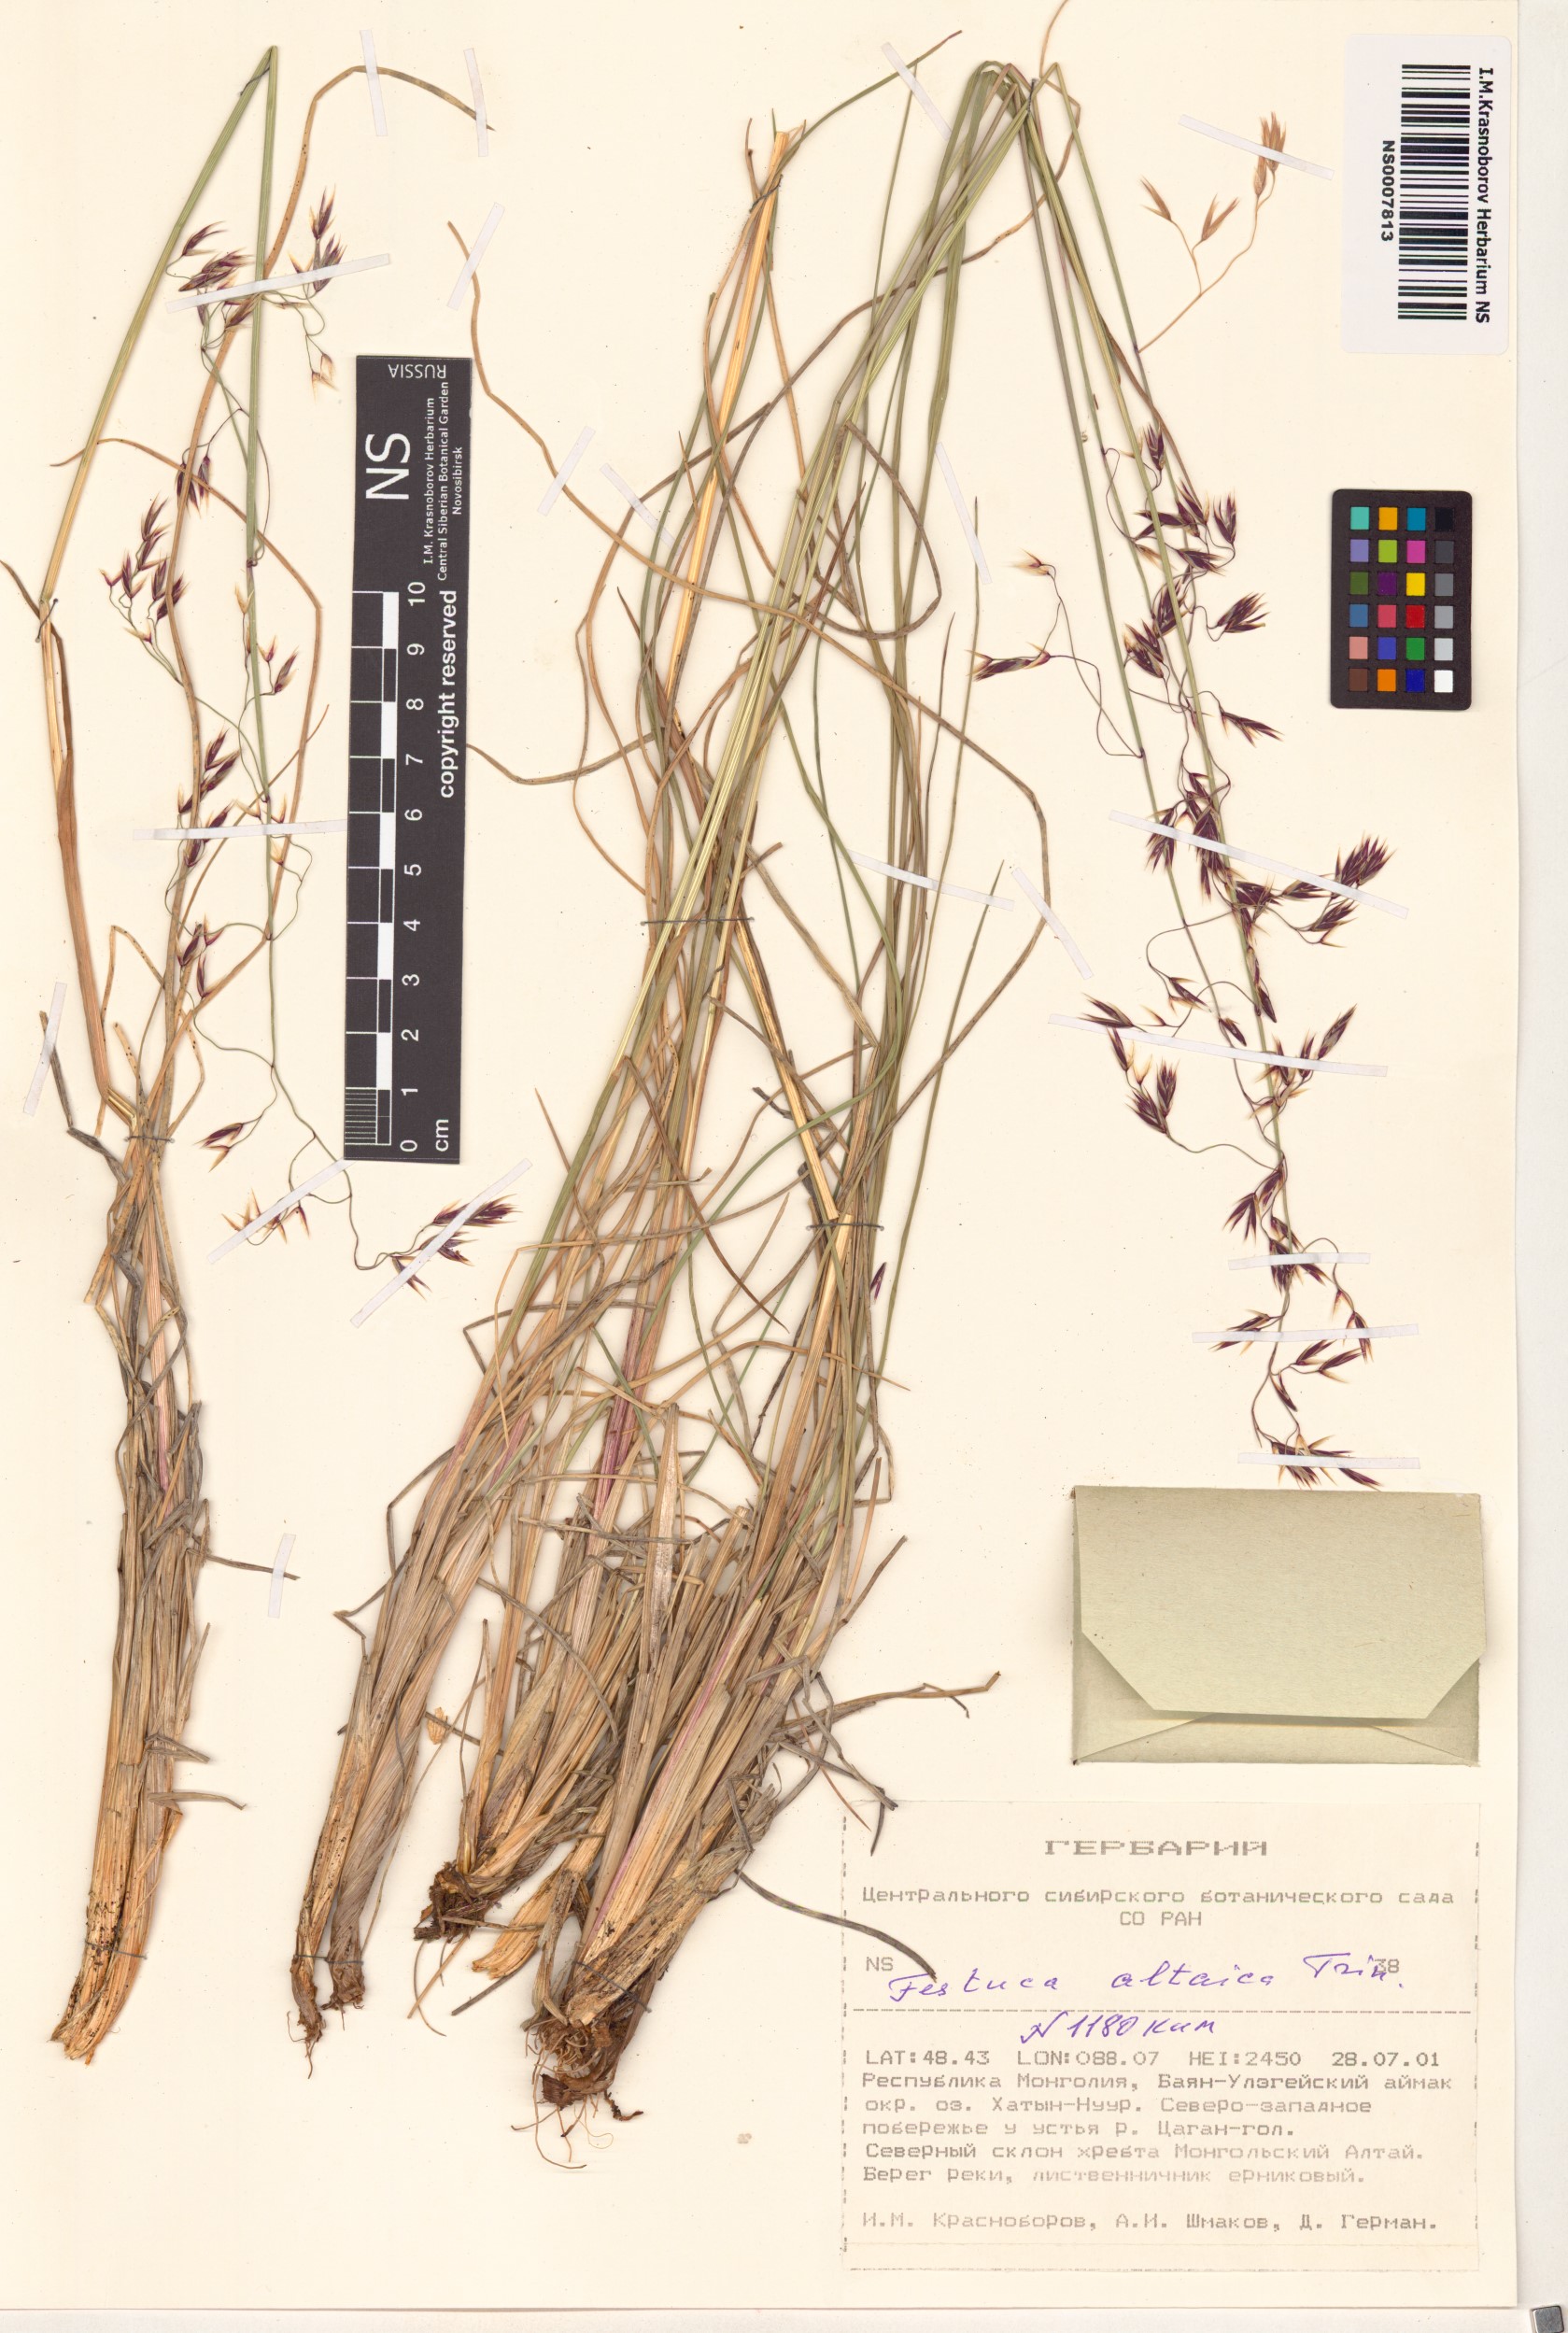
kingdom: Plantae
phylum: Tracheophyta
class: Liliopsida
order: Poales
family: Poaceae
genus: Festuca
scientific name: Festuca altaica
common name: Northern rough fescue
